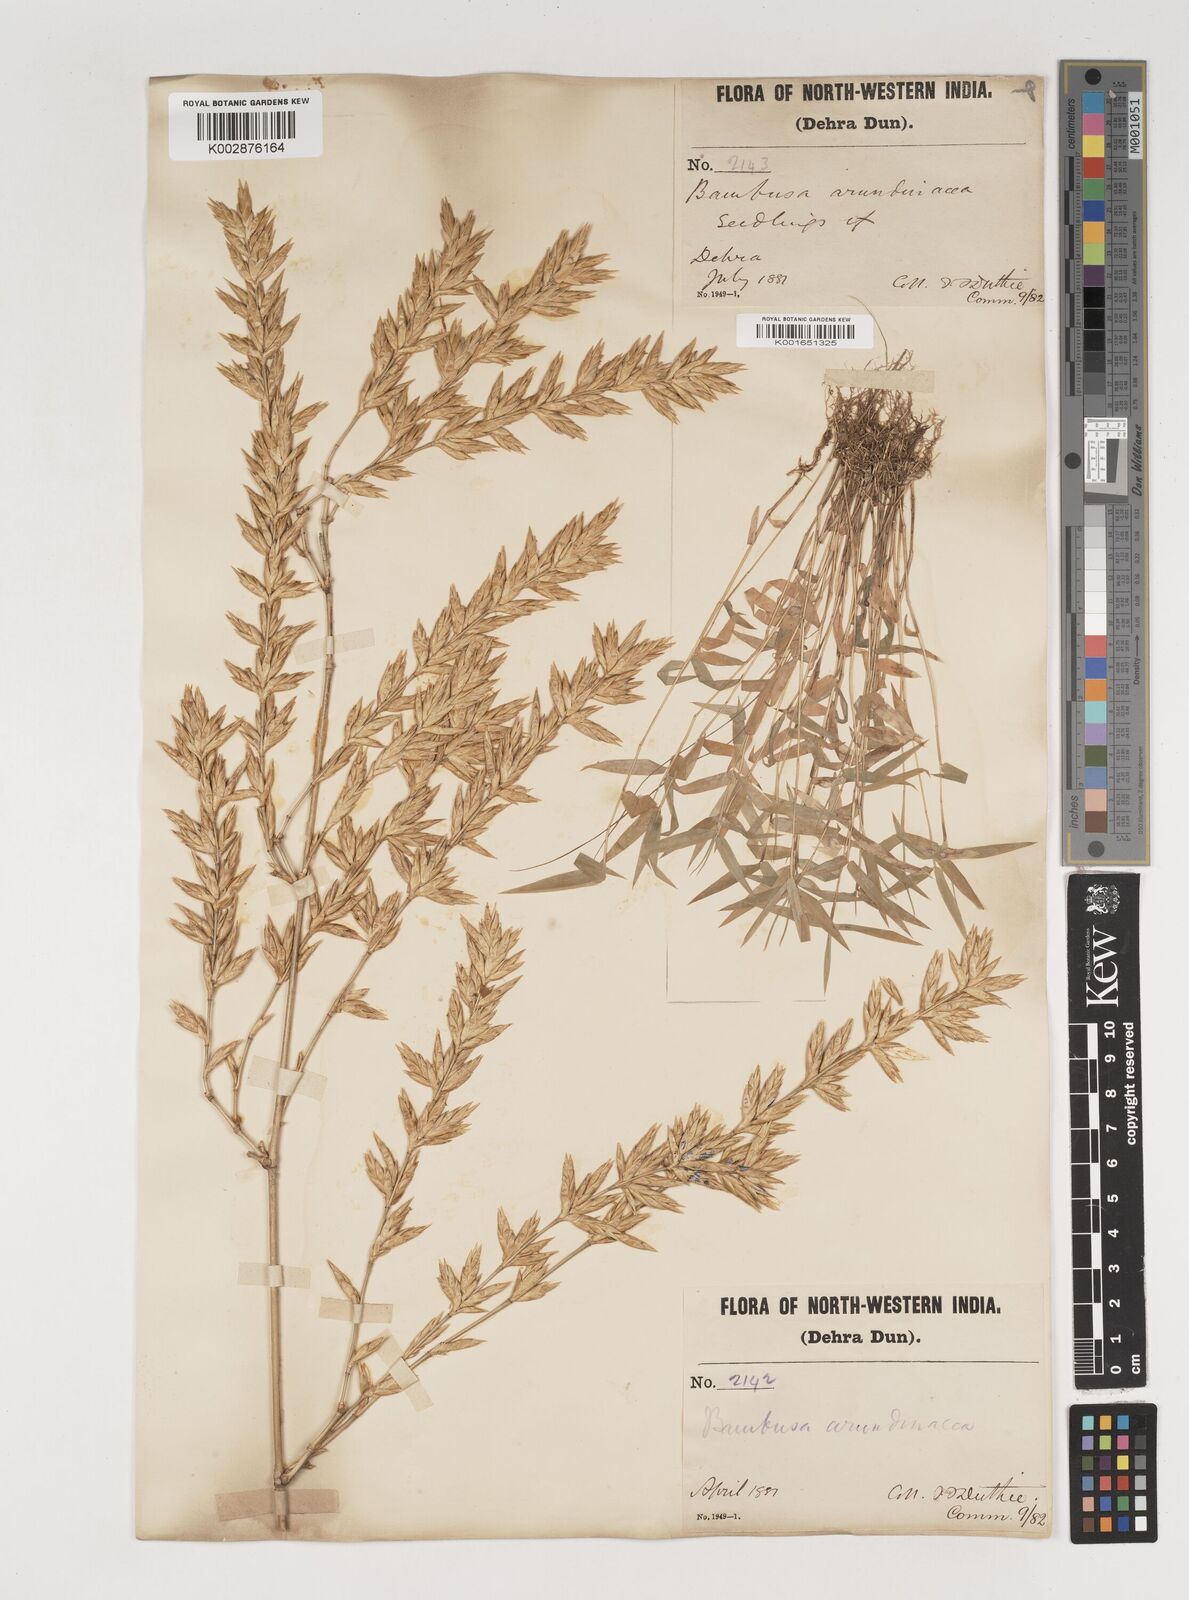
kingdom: Plantae
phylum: Tracheophyta
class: Liliopsida
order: Poales
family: Poaceae
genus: Bambusa
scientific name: Bambusa bambos
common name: Indian thorny bamboo
